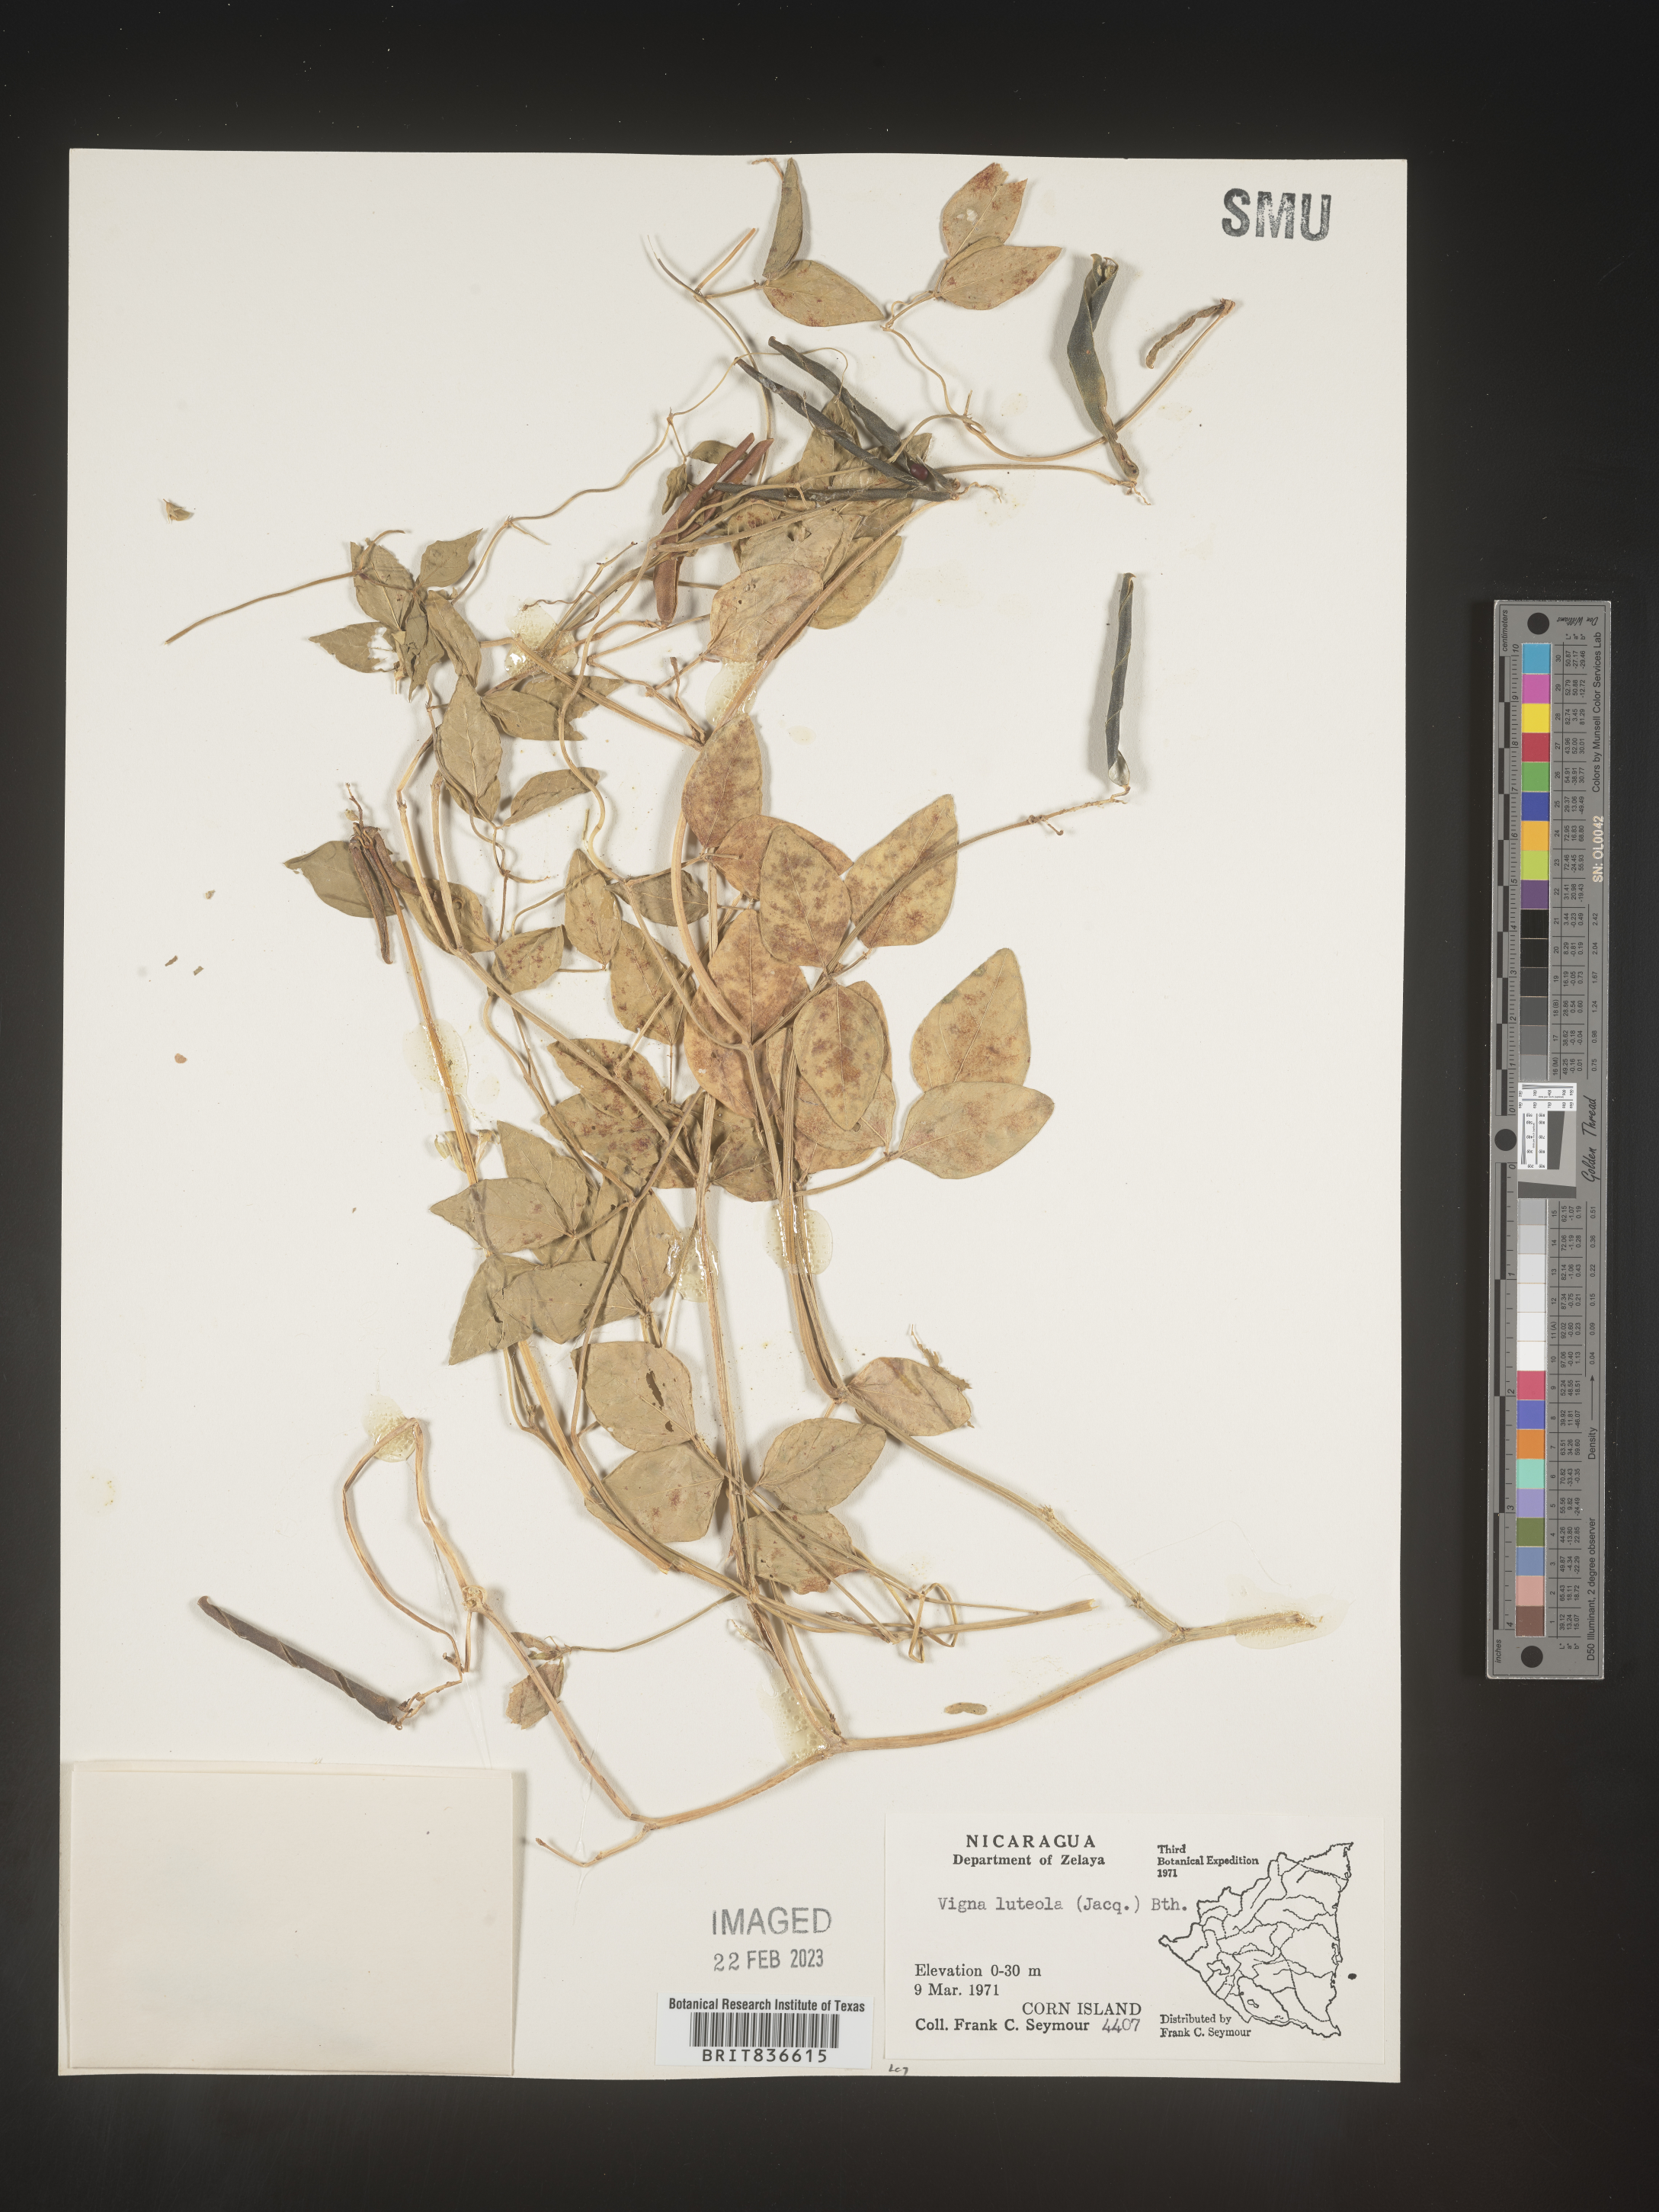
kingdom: Plantae
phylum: Tracheophyta
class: Magnoliopsida
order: Fabales
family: Fabaceae
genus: Vigna
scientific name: Vigna
